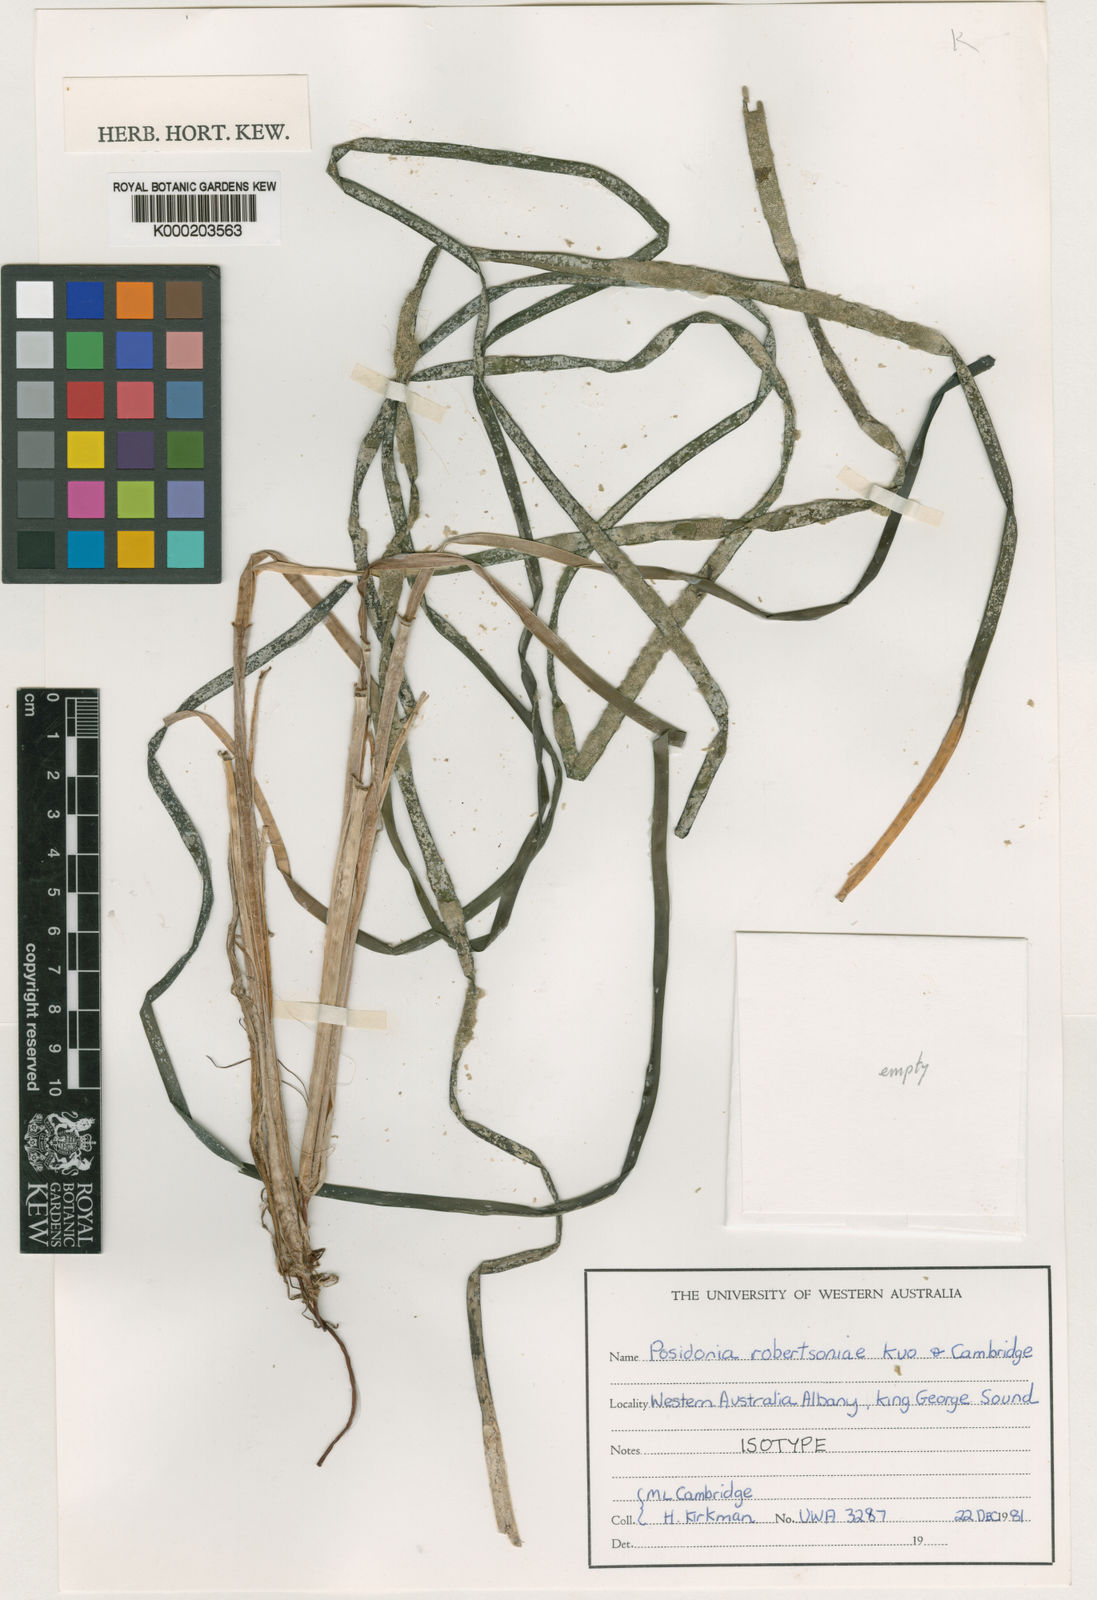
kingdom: Plantae
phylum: Tracheophyta
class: Liliopsida
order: Alismatales
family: Posidoniaceae
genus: Posidonia
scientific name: Posidonia robertsoniae
